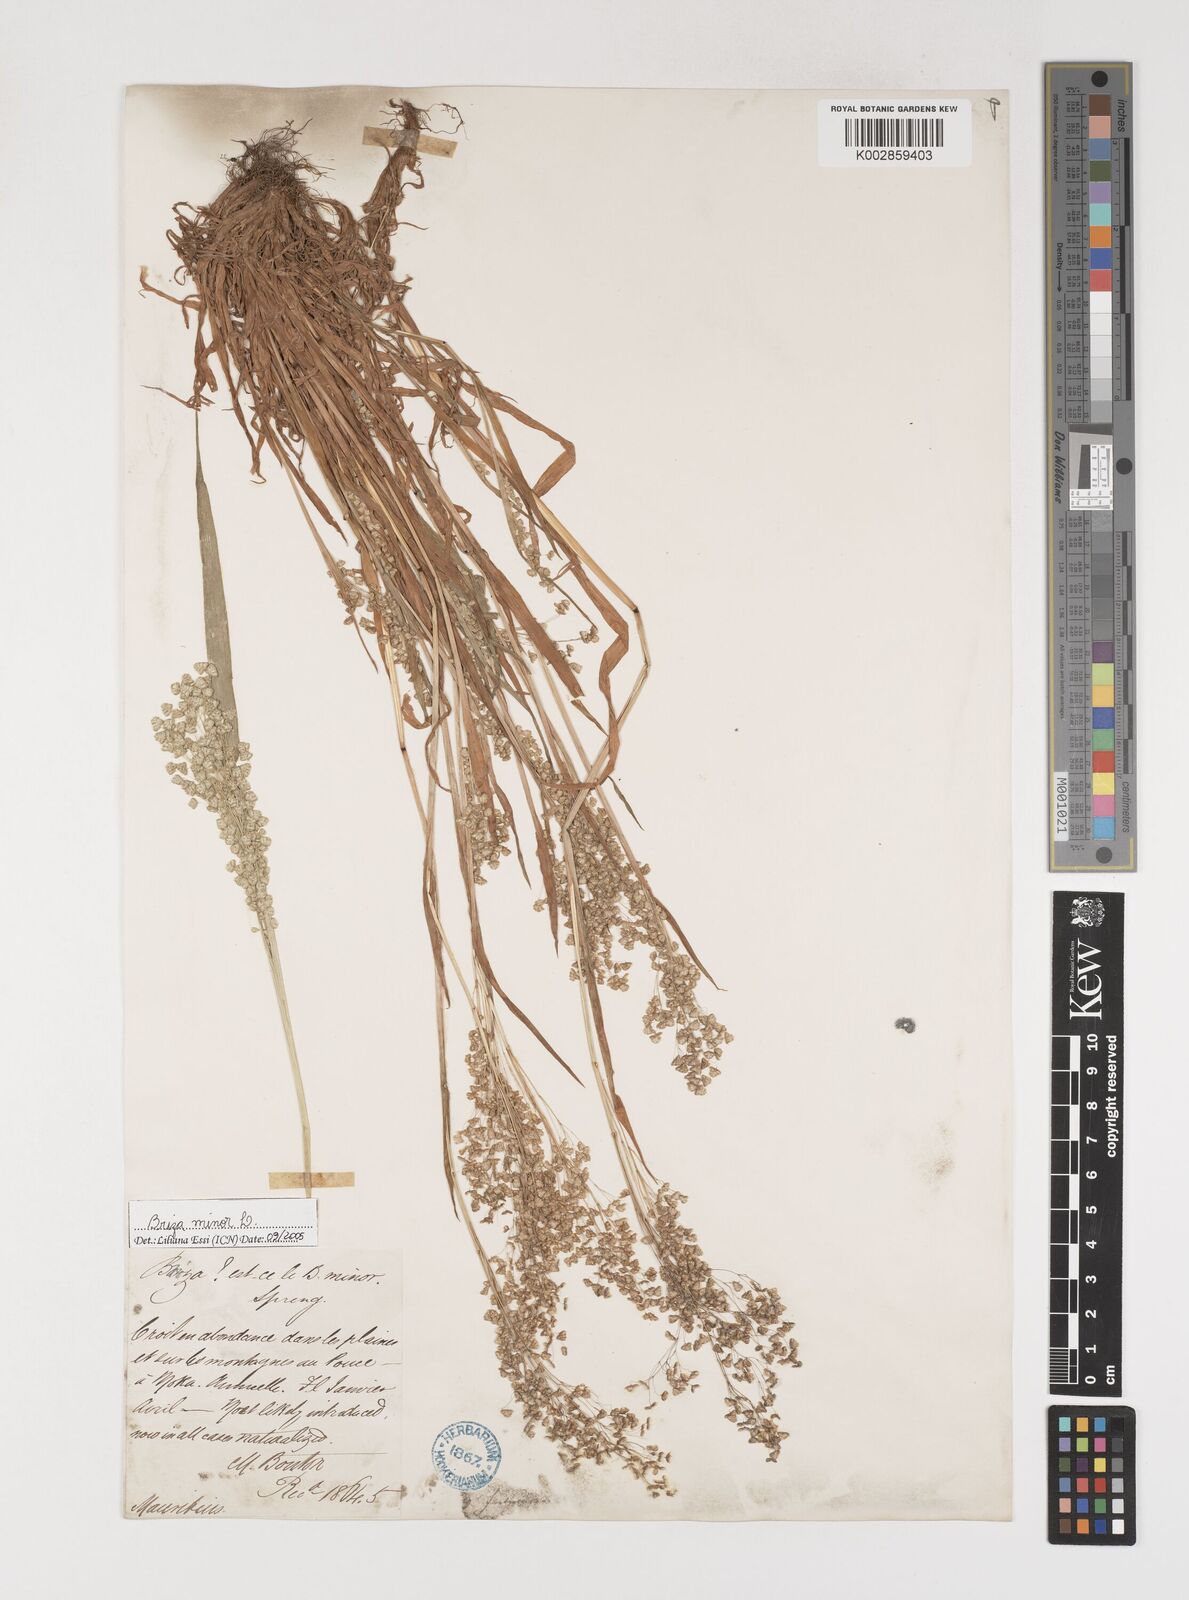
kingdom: Plantae
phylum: Tracheophyta
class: Liliopsida
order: Poales
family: Poaceae
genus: Briza
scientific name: Briza minor
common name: Lesser quaking-grass
